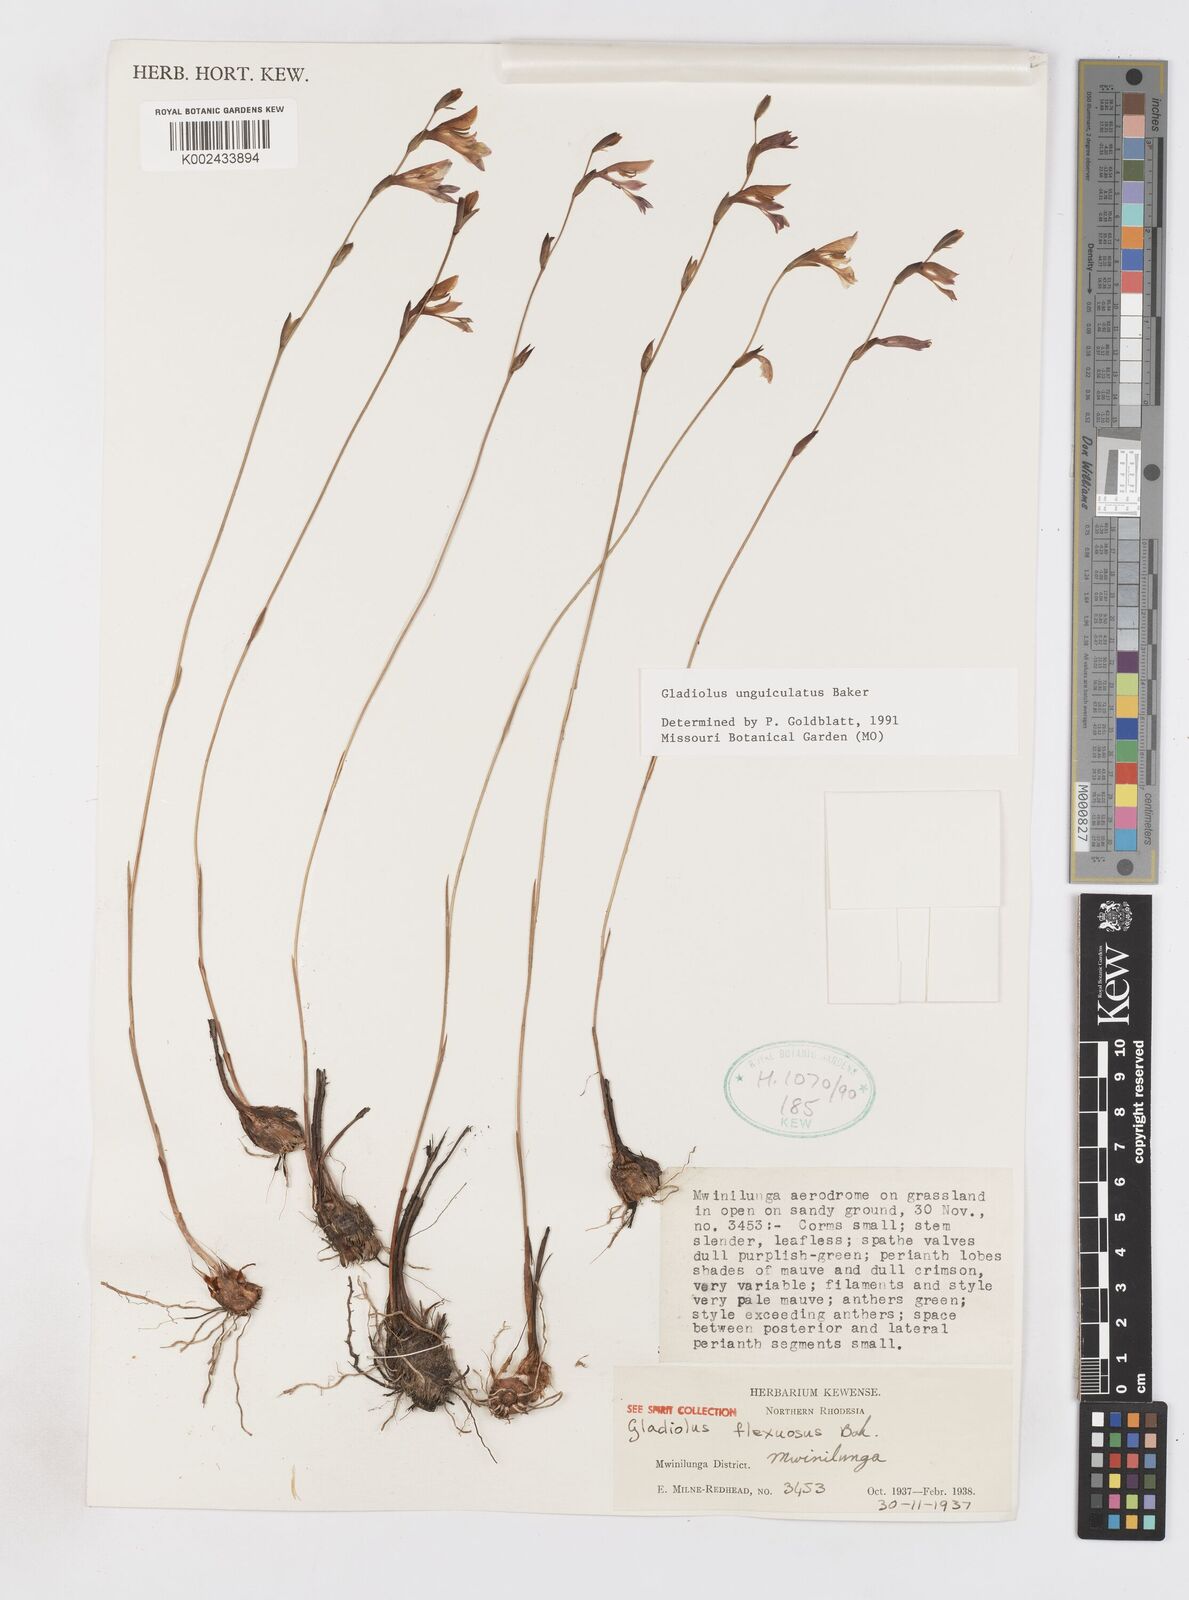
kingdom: Plantae
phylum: Tracheophyta
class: Liliopsida
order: Asparagales
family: Iridaceae
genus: Gladiolus
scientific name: Gladiolus unguiculatus
